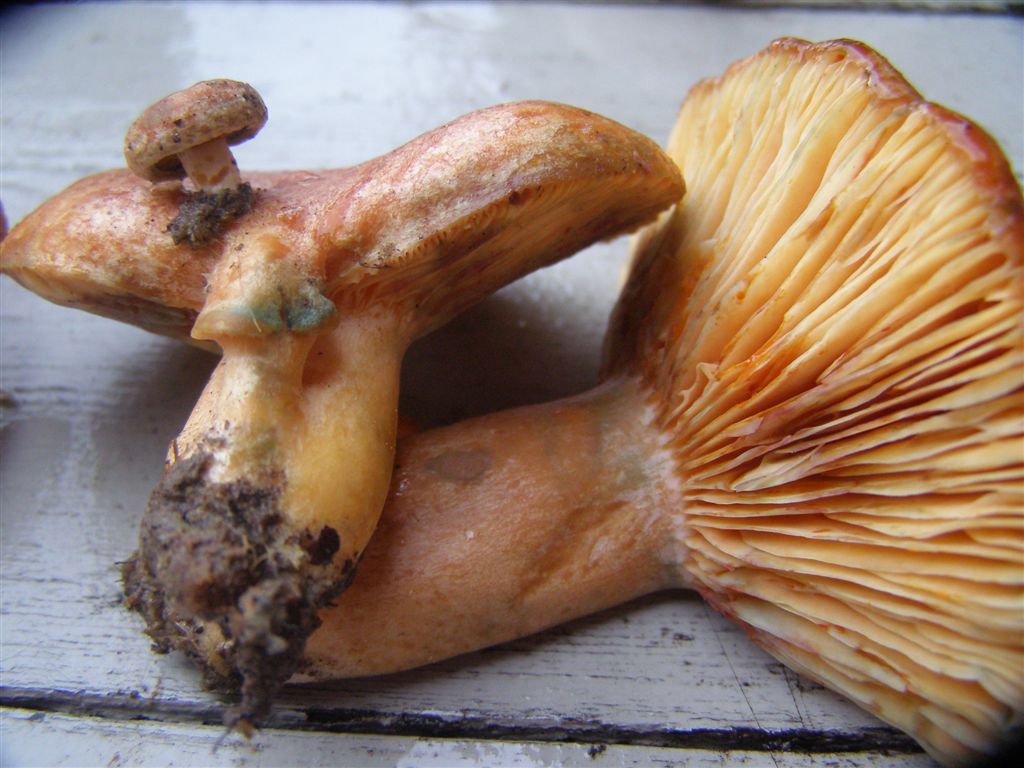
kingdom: Fungi
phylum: Basidiomycota
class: Agaricomycetes
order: Russulales
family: Russulaceae
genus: Lactarius
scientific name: Lactarius quieticolor
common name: tvefarvet mælkehat
